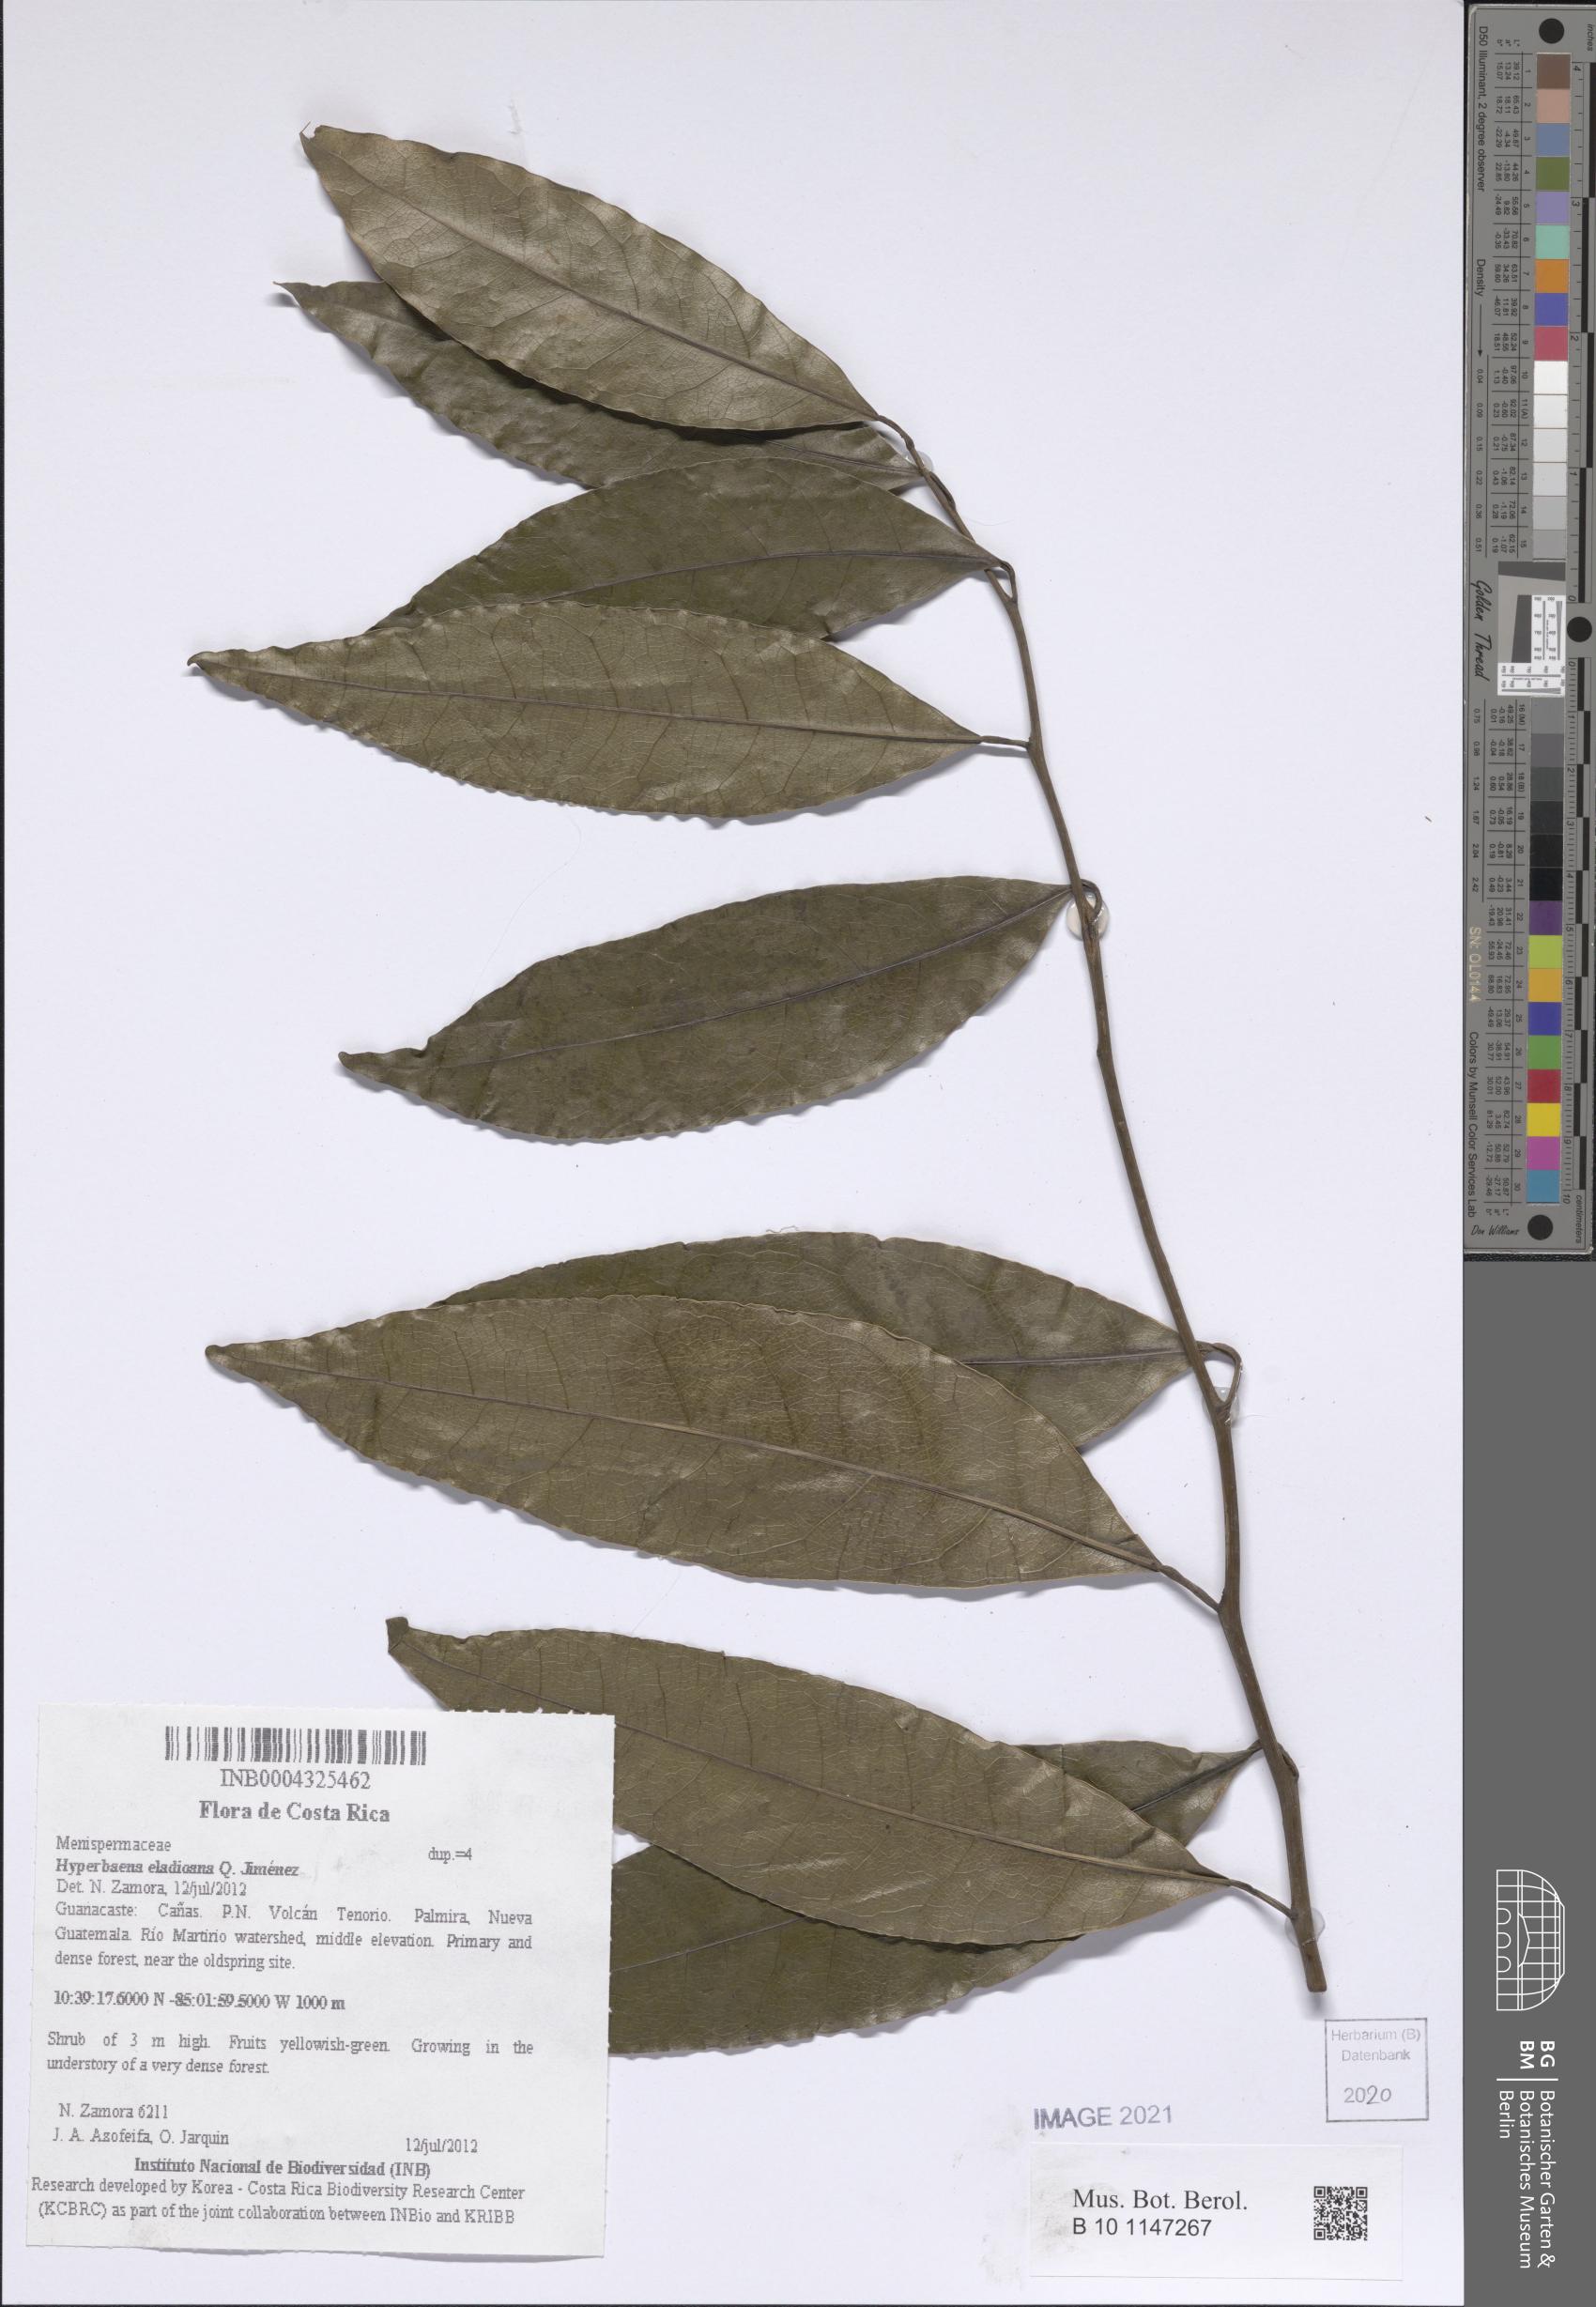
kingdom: Plantae
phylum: Tracheophyta
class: Magnoliopsida
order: Ranunculales
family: Menispermaceae
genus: Hyperbaena
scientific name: Hyperbaena eladioana
